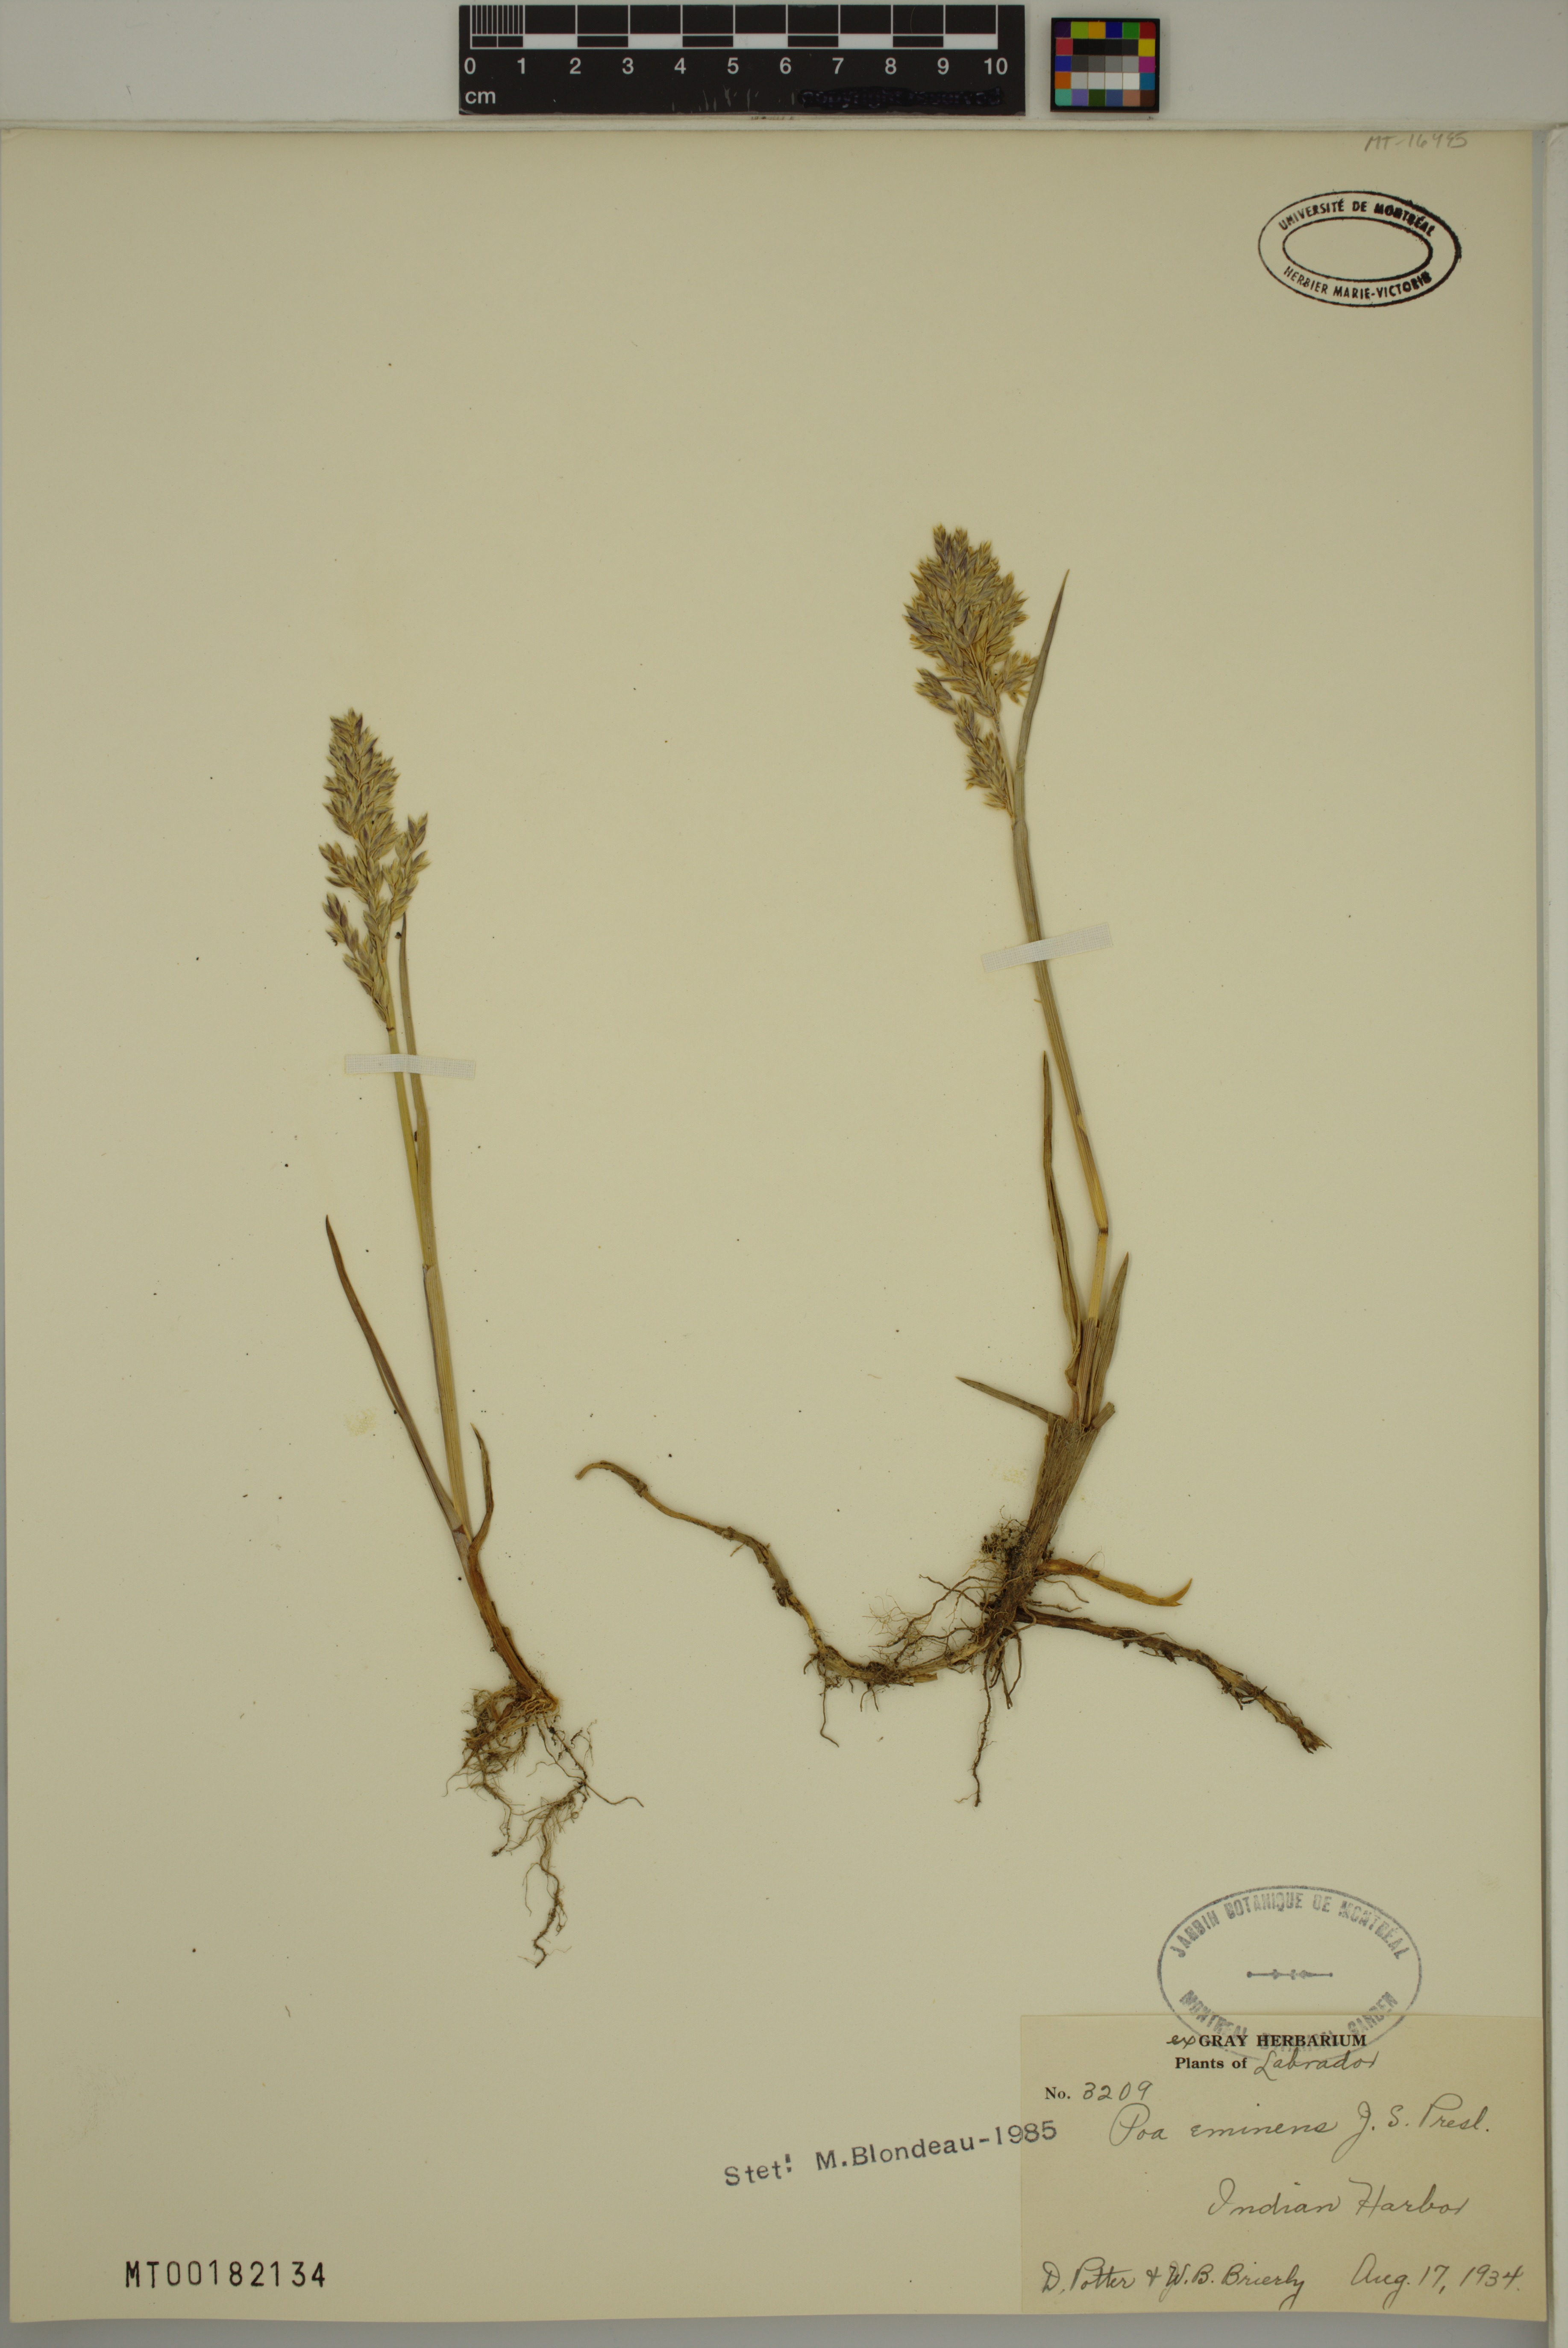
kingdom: Plantae
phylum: Tracheophyta
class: Liliopsida
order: Poales
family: Poaceae
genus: Arctopoa
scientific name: Arctopoa eminens
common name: Eminent bluegrass
